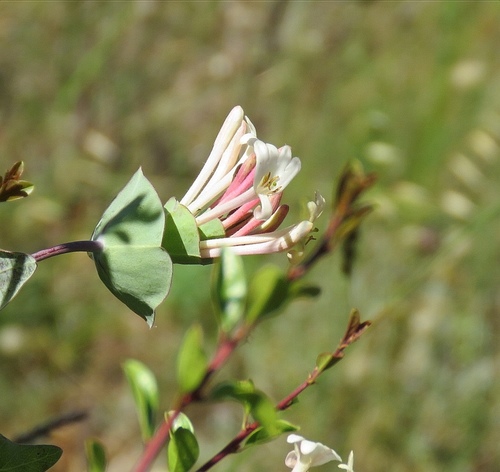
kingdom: Plantae
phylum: Tracheophyta
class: Magnoliopsida
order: Dipsacales
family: Caprifoliaceae
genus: Lonicera
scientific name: Lonicera implexa
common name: Minorca honeysuckle
